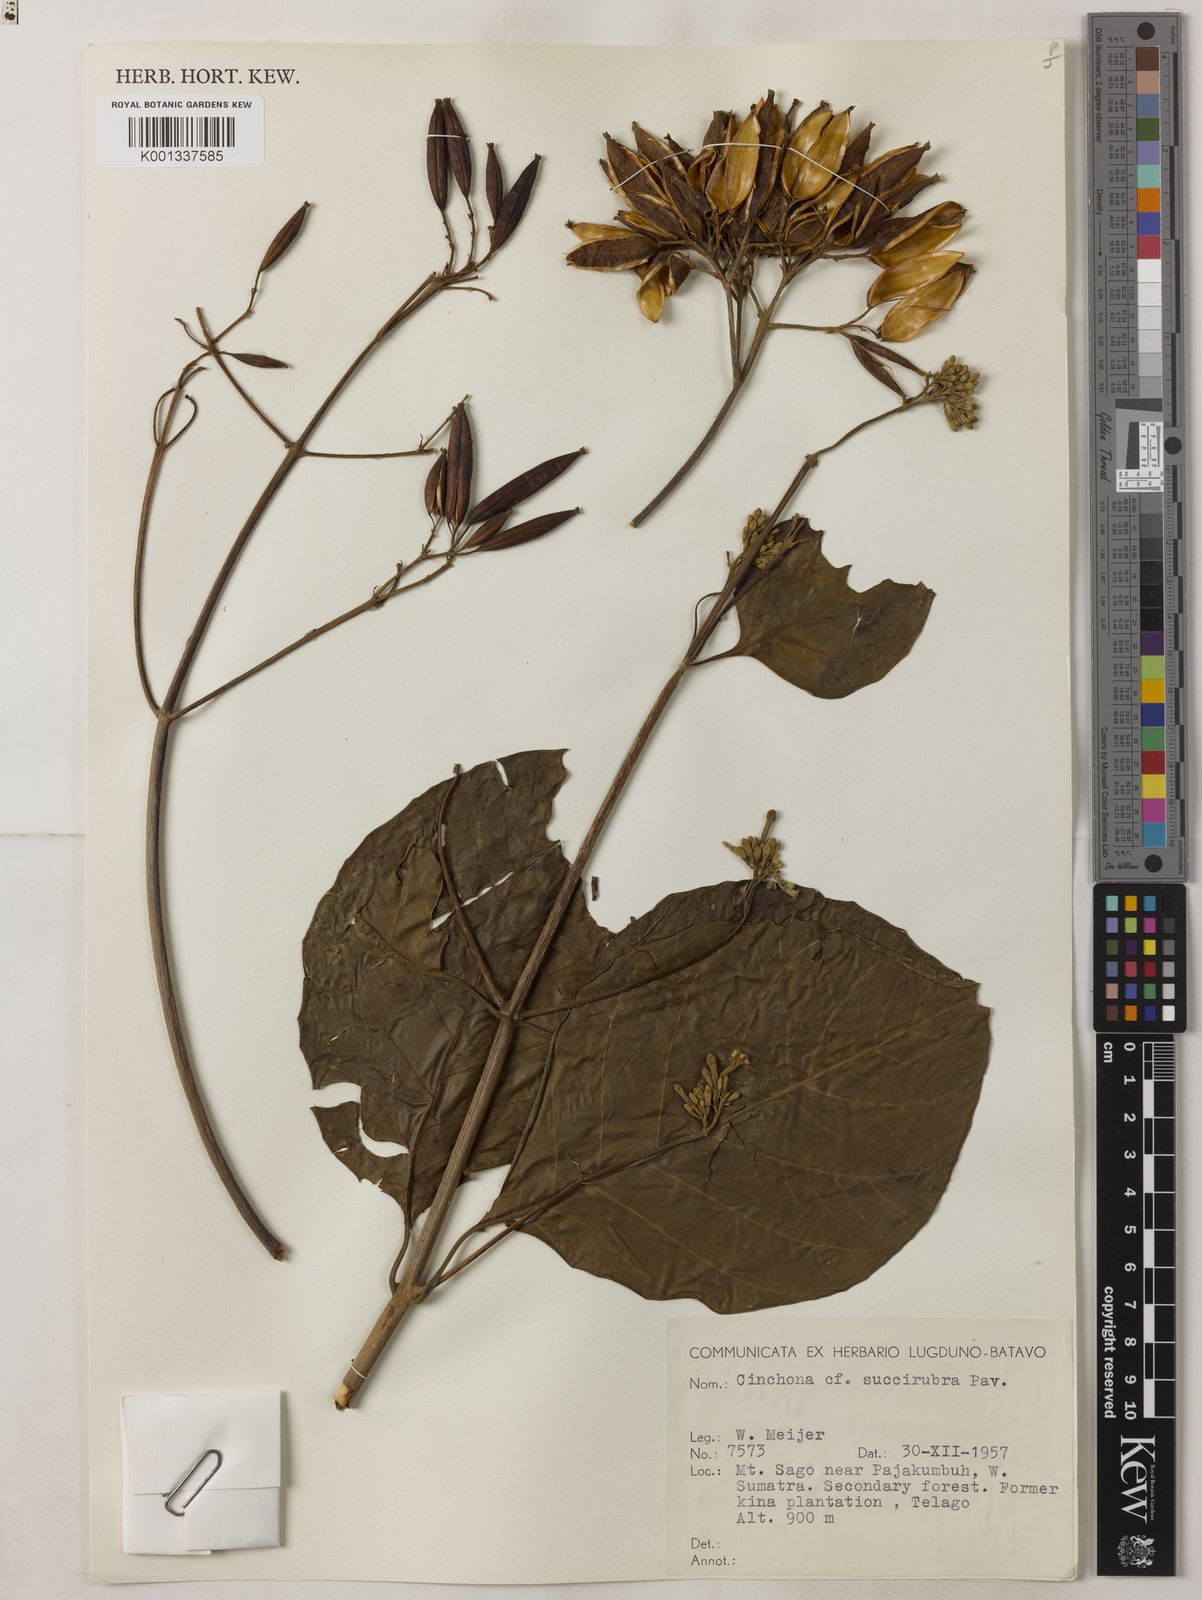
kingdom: Plantae
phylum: Tracheophyta
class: Magnoliopsida
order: Gentianales
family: Rubiaceae
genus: Cinchona
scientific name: Cinchona pubescens
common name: Quinine
